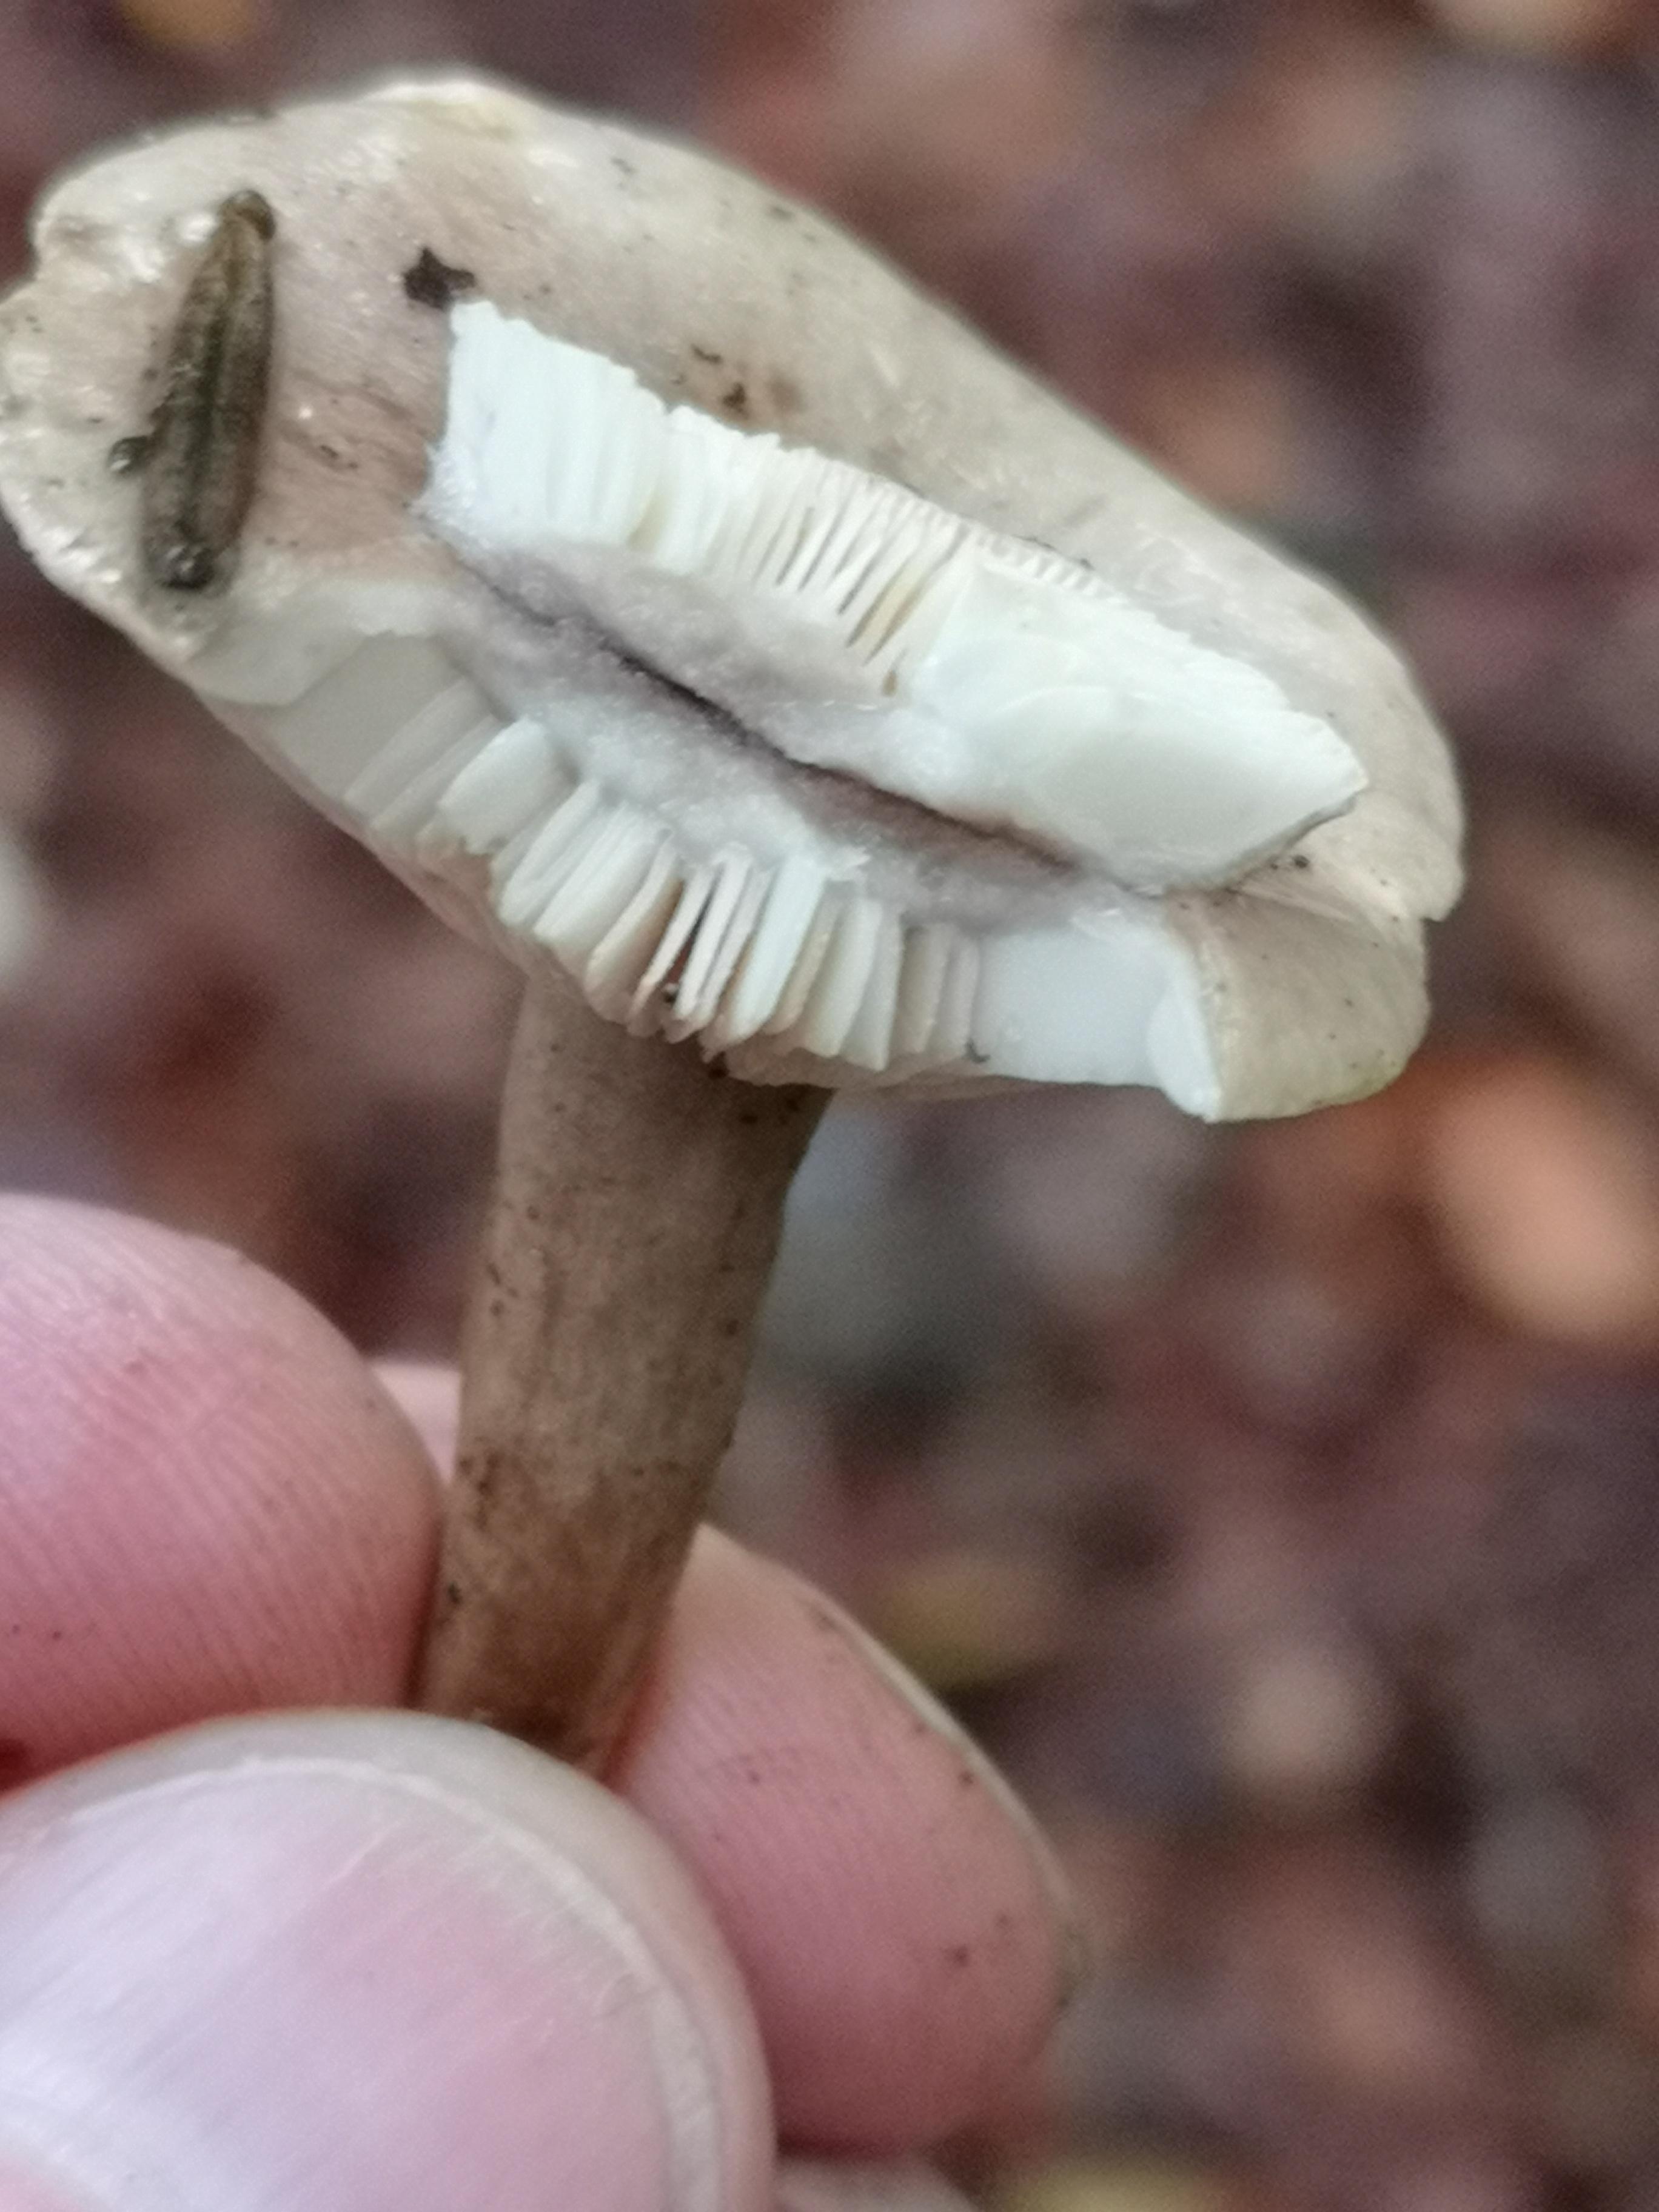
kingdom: Fungi
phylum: Basidiomycota
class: Agaricomycetes
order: Russulales
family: Russulaceae
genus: Lactarius
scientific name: Lactarius blennius
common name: dråbeplettet mælkehat
